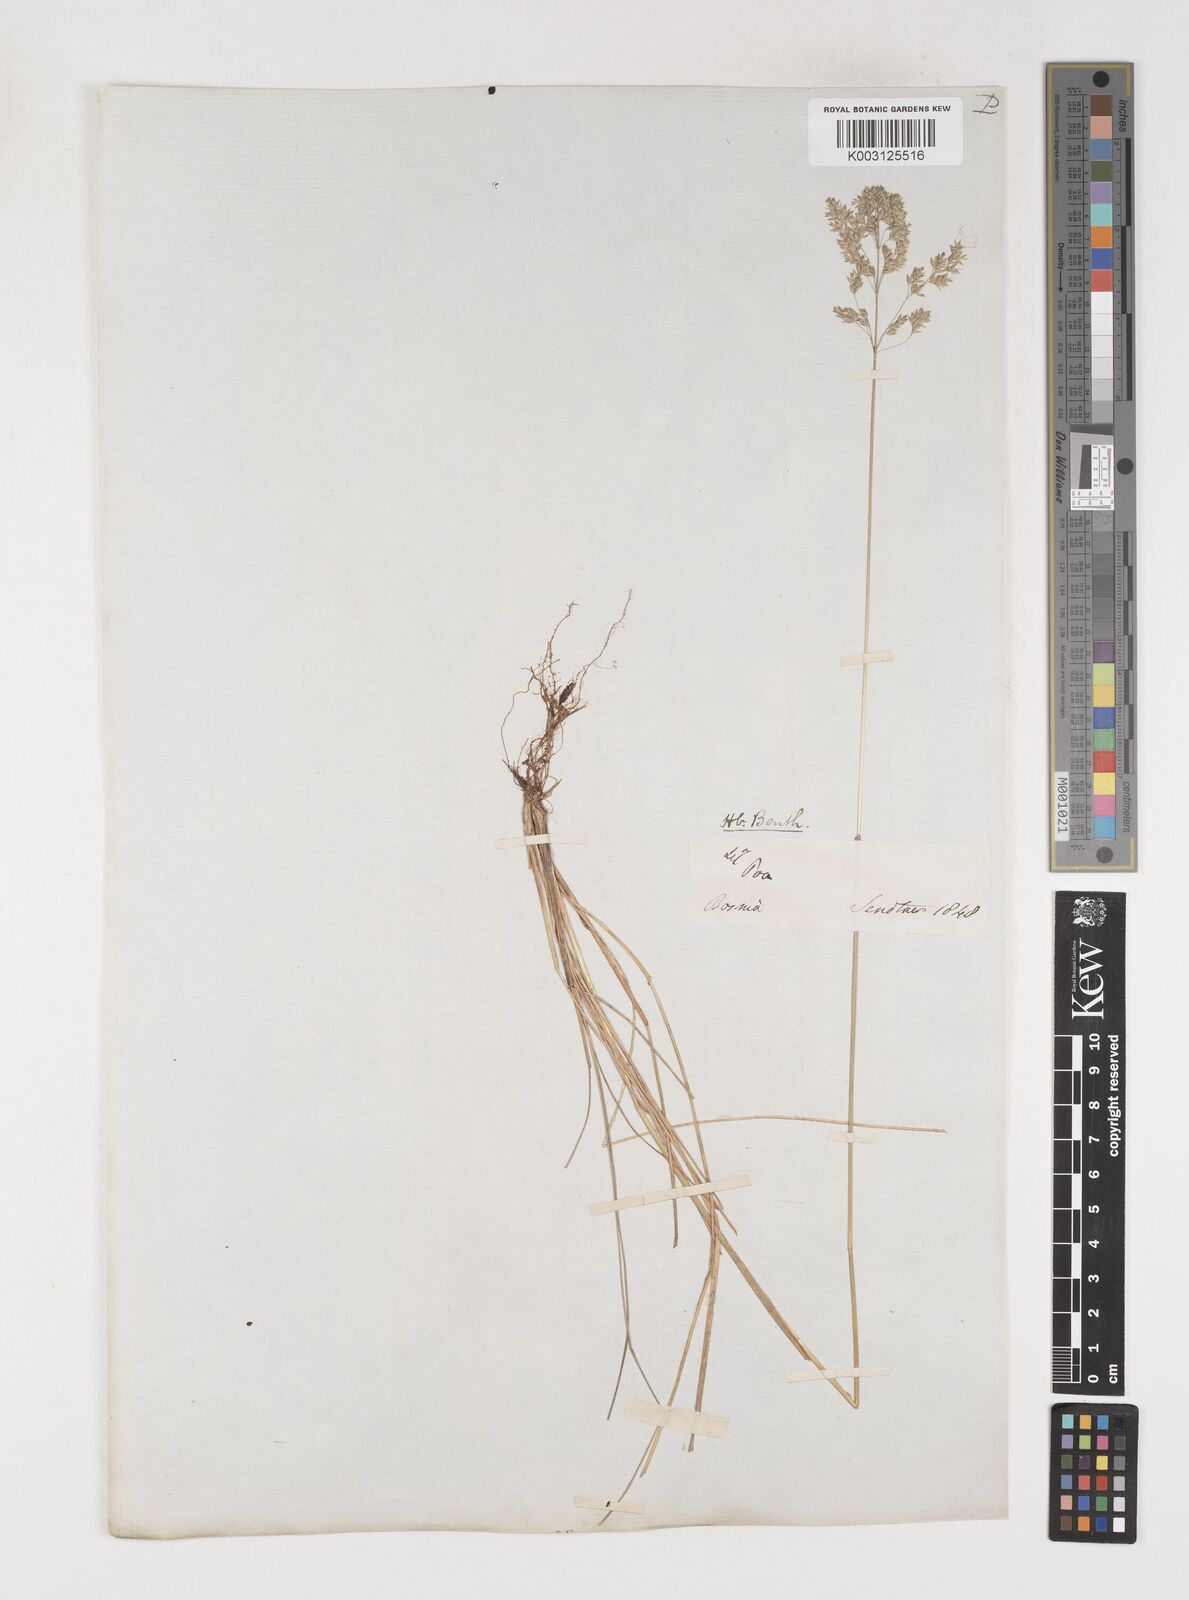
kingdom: Plantae
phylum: Tracheophyta
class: Liliopsida
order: Poales
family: Poaceae
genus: Poa
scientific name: Poa angustifolia
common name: Narrow-leaved meadow-grass
